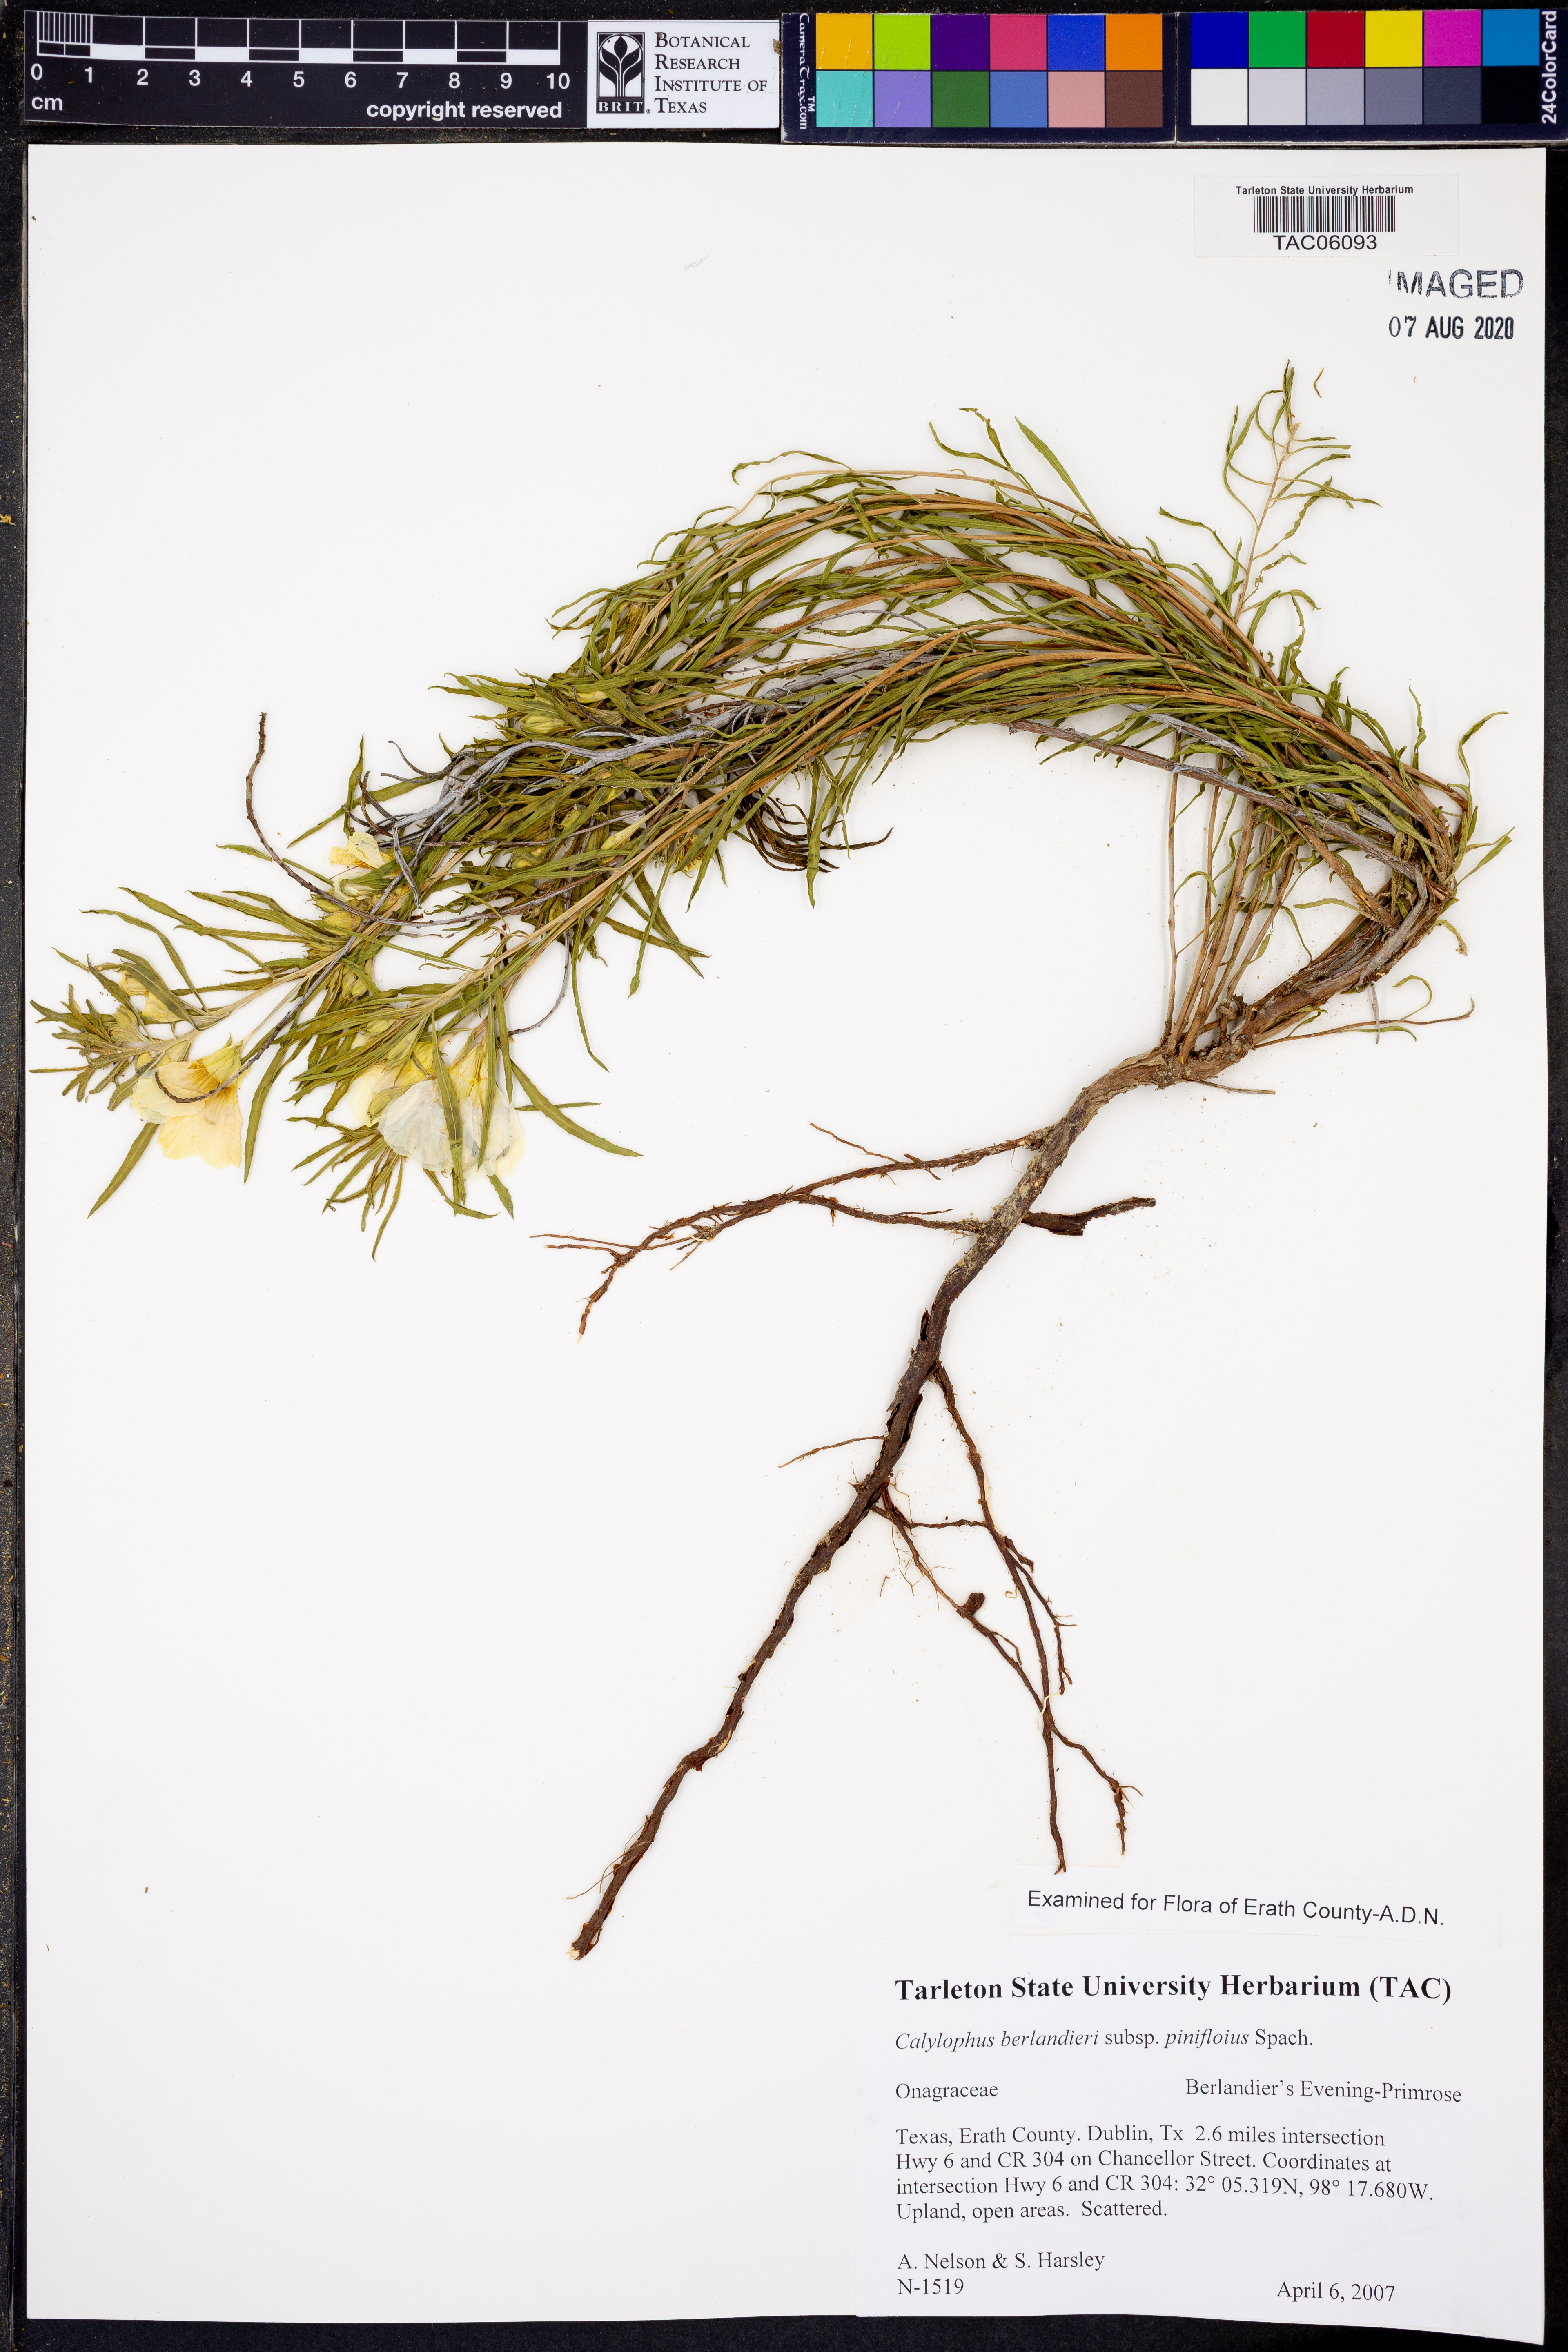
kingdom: Plantae
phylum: Tracheophyta
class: Magnoliopsida
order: Myrtales
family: Onagraceae
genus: Oenothera
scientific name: Oenothera capillifolia
